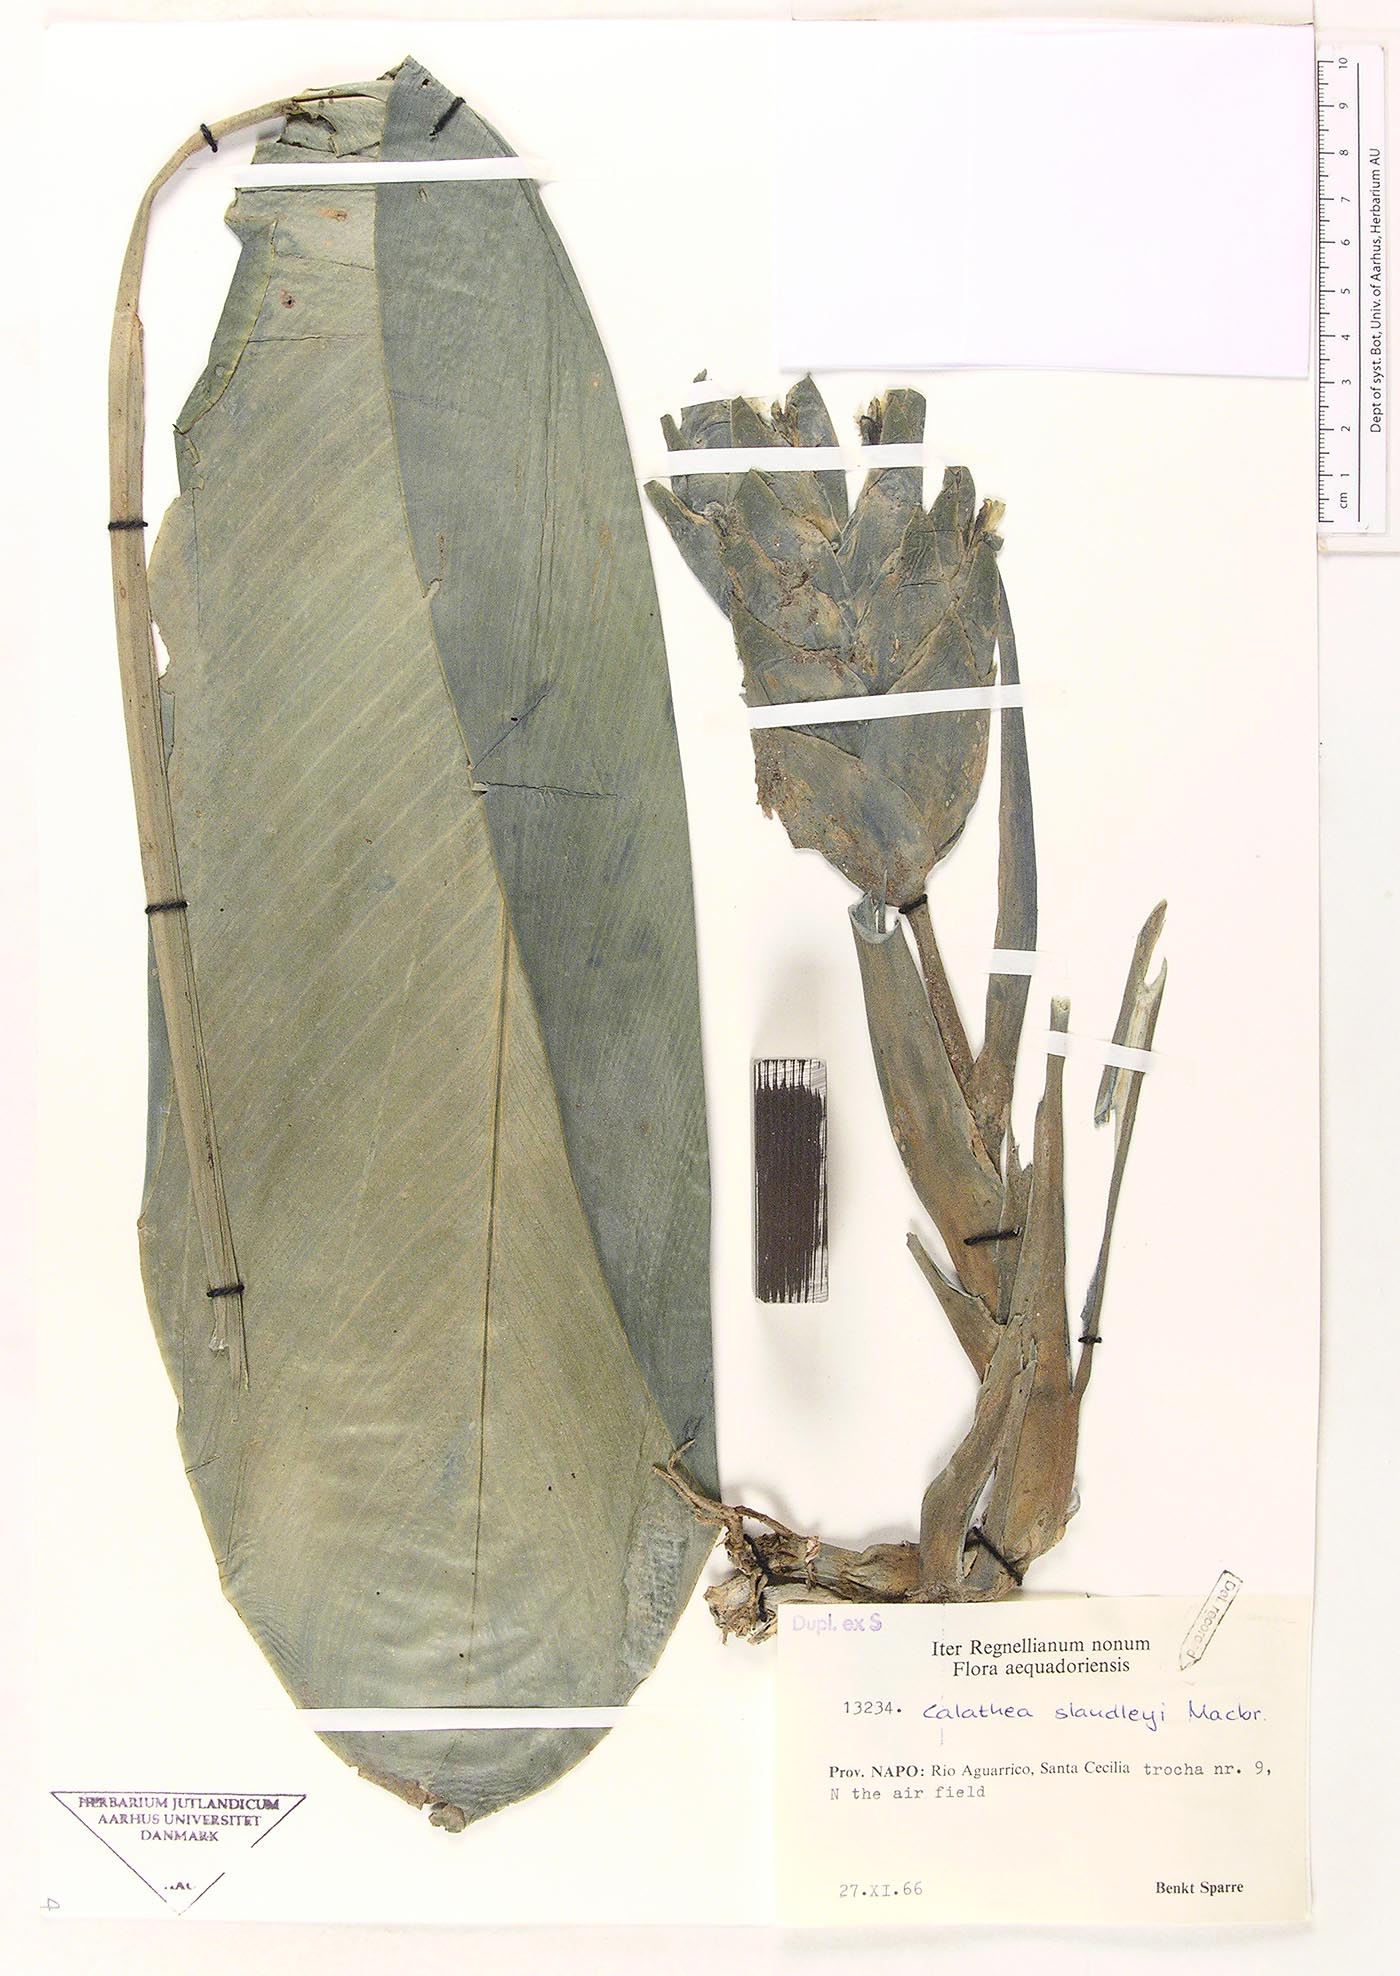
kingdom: Plantae
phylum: Tracheophyta
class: Liliopsida
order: Zingiberales
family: Marantaceae
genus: Goeppertia
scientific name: Goeppertia standleyi
